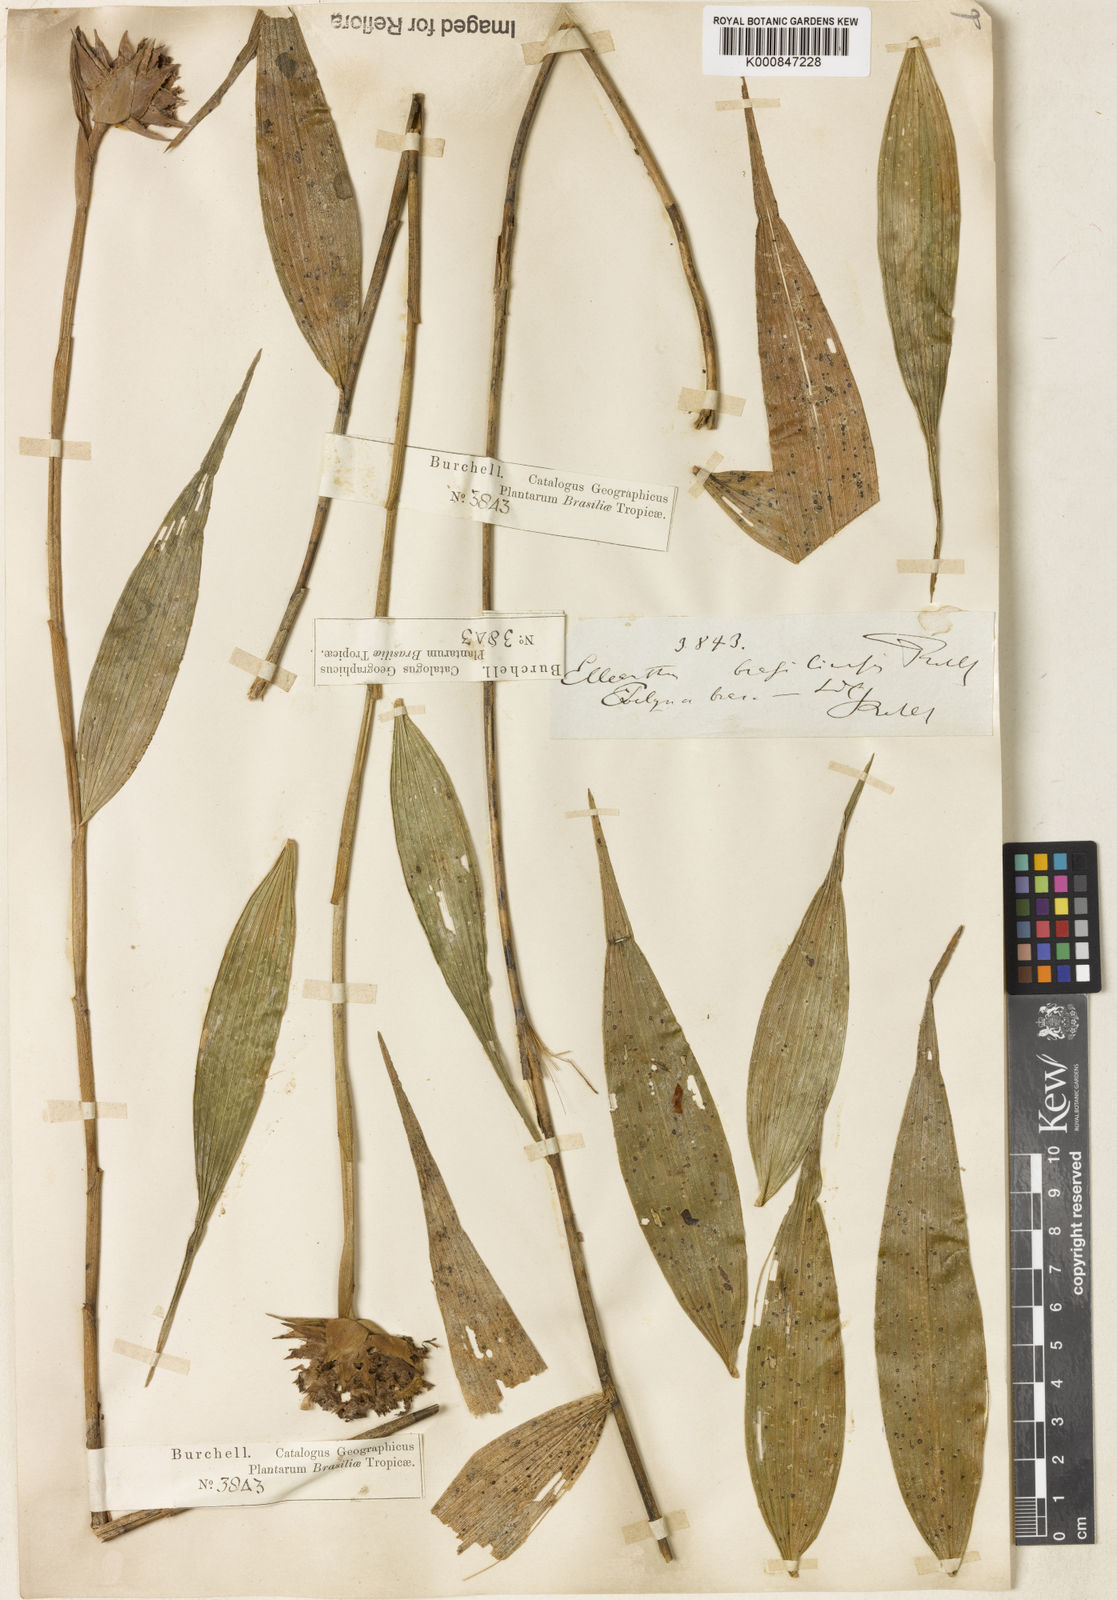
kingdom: Plantae
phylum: Tracheophyta
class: Liliopsida
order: Asparagales
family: Orchidaceae
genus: Elleanthus
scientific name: Elleanthus brasiliensis
